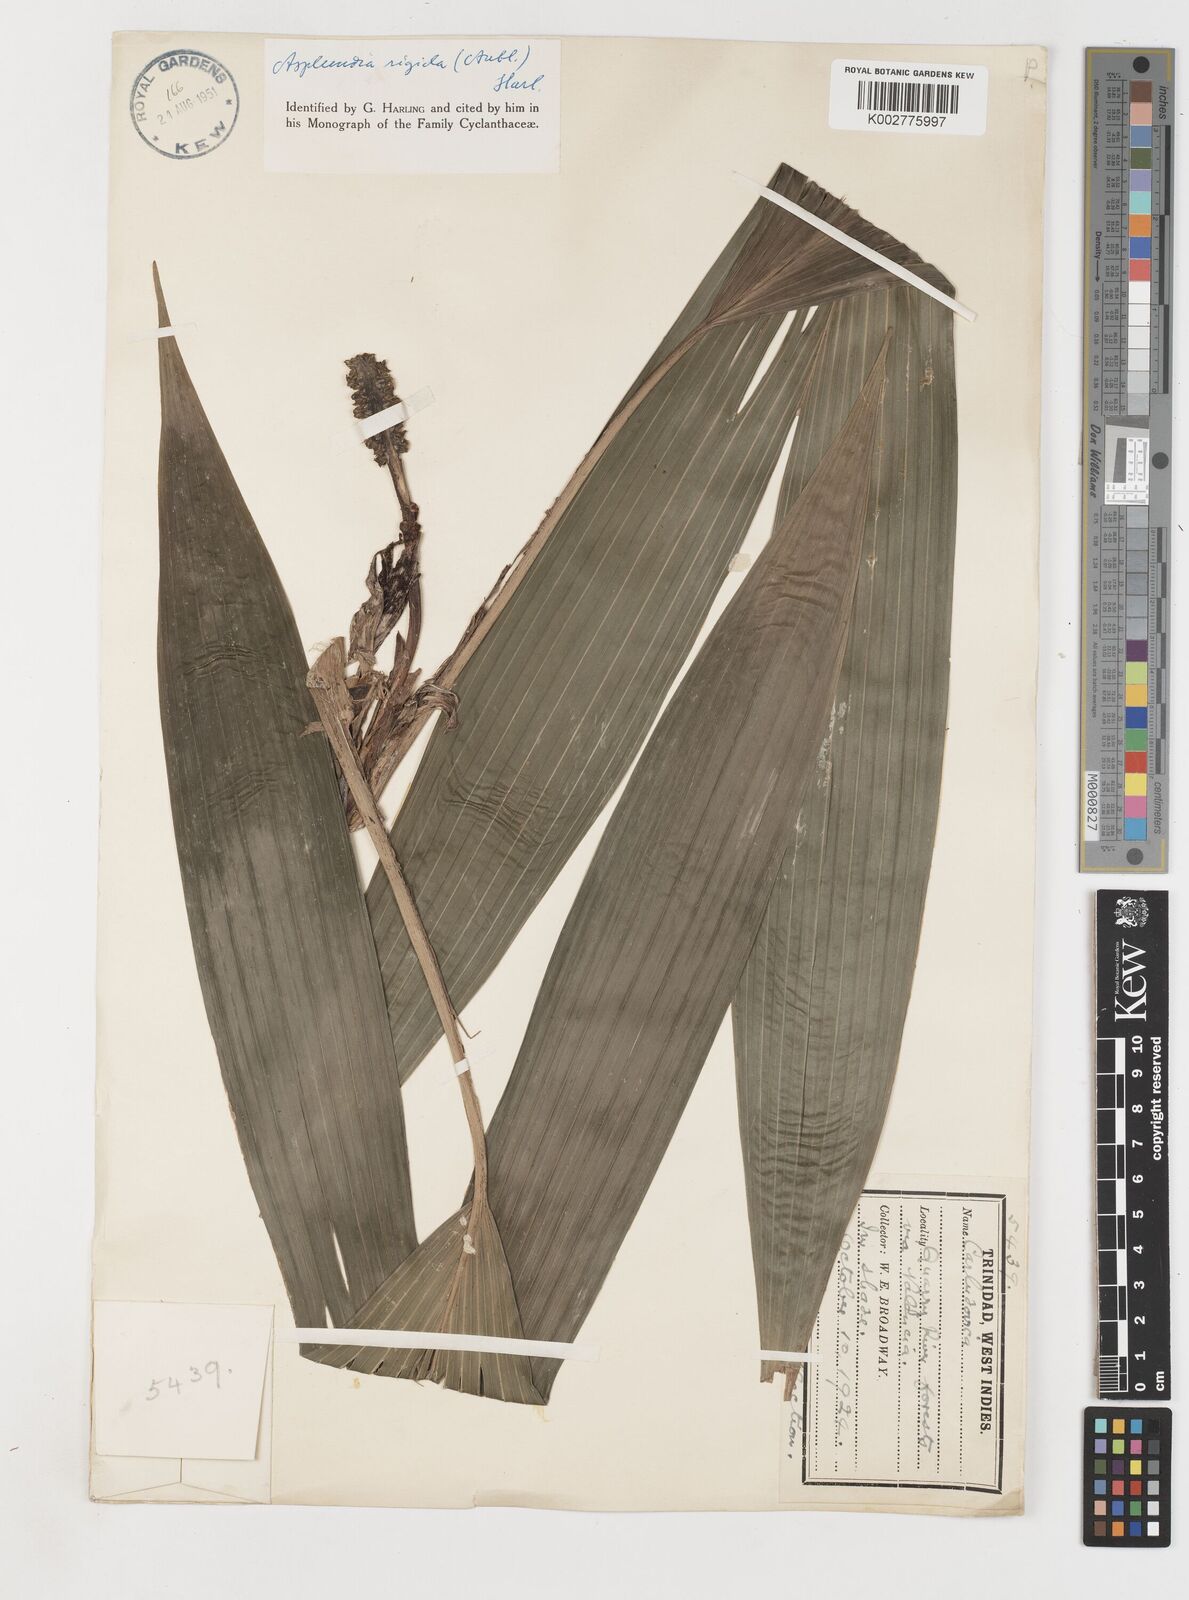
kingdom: Plantae
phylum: Tracheophyta
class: Liliopsida
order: Pandanales
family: Cyclanthaceae
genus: Asplundia
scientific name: Asplundia rigida
